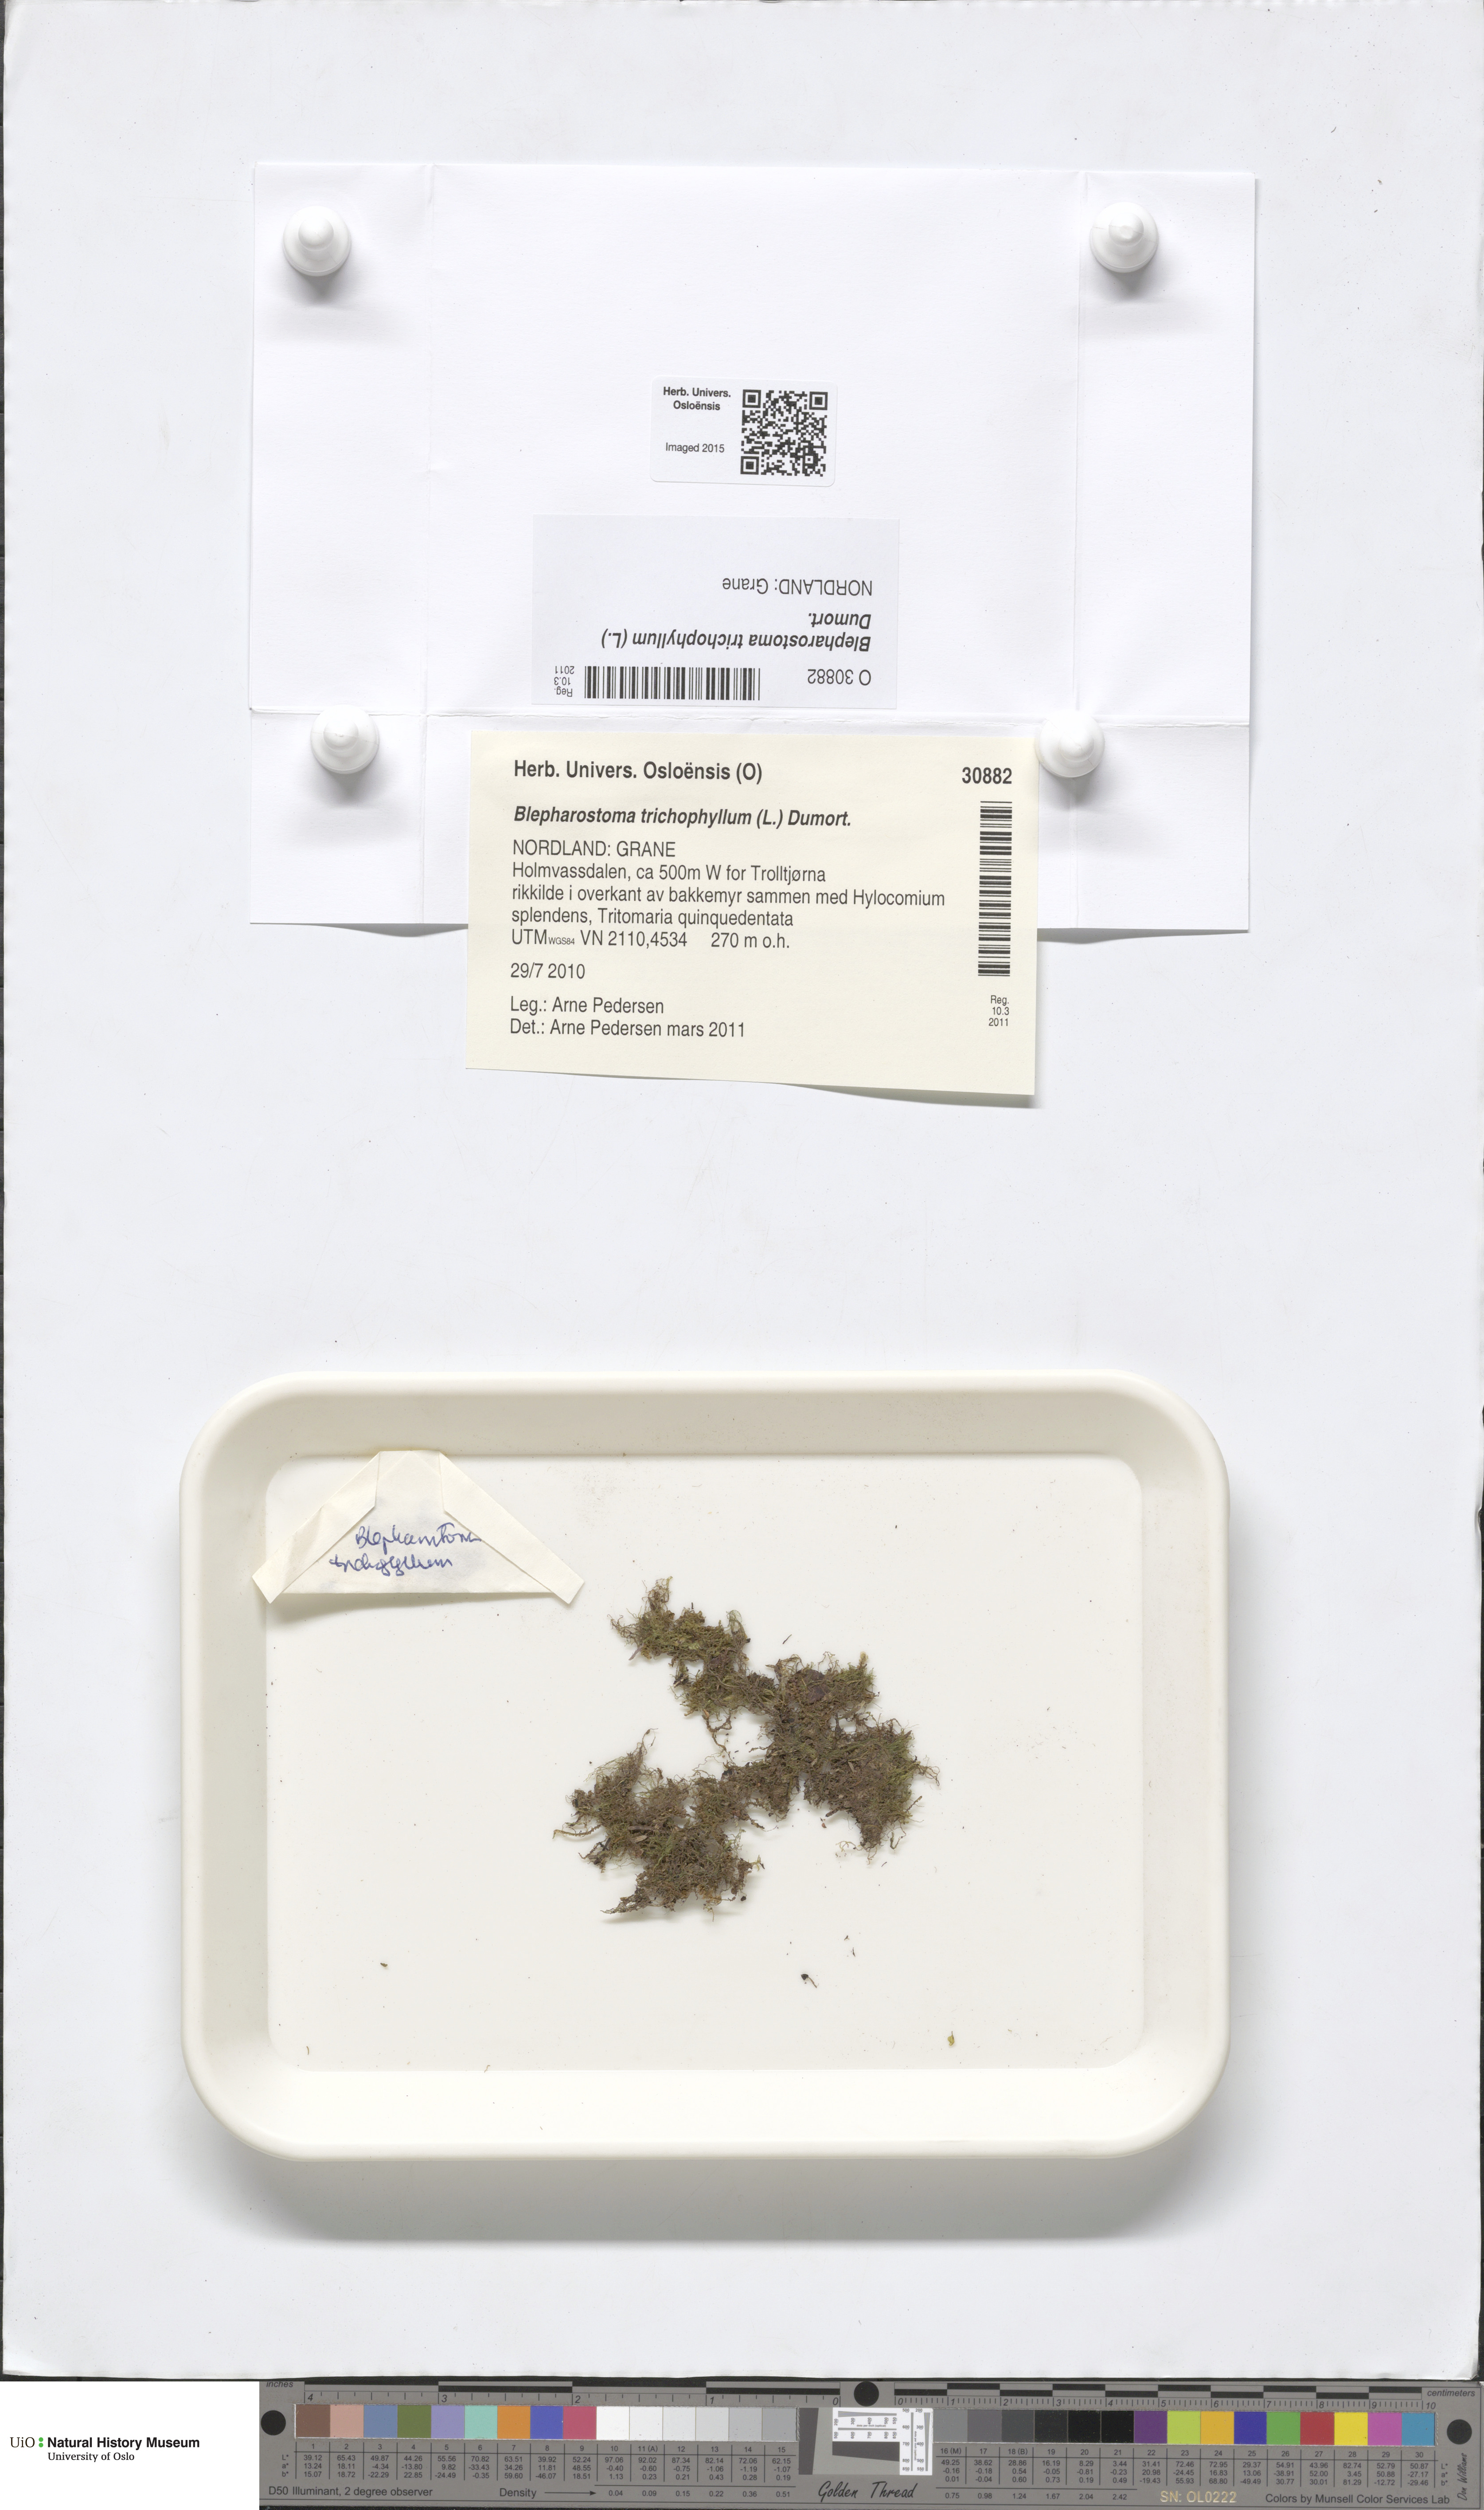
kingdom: Plantae
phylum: Marchantiophyta
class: Jungermanniopsida
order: Jungermanniales
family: Blepharostomataceae
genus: Blepharostoma
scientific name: Blepharostoma trichophyllum
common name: Hairy threadwort
